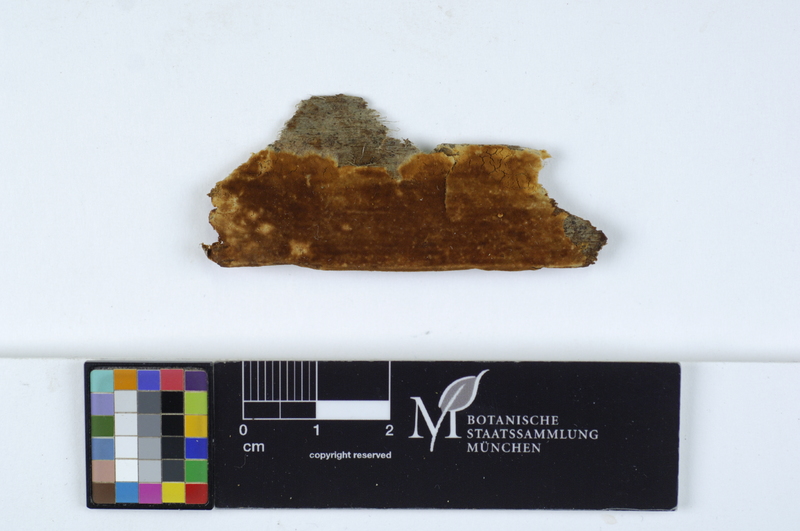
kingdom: Fungi
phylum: Basidiomycota
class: Agaricomycetes
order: Cantharellales
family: Botryobasidiaceae
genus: Acladium
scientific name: Acladium simile
